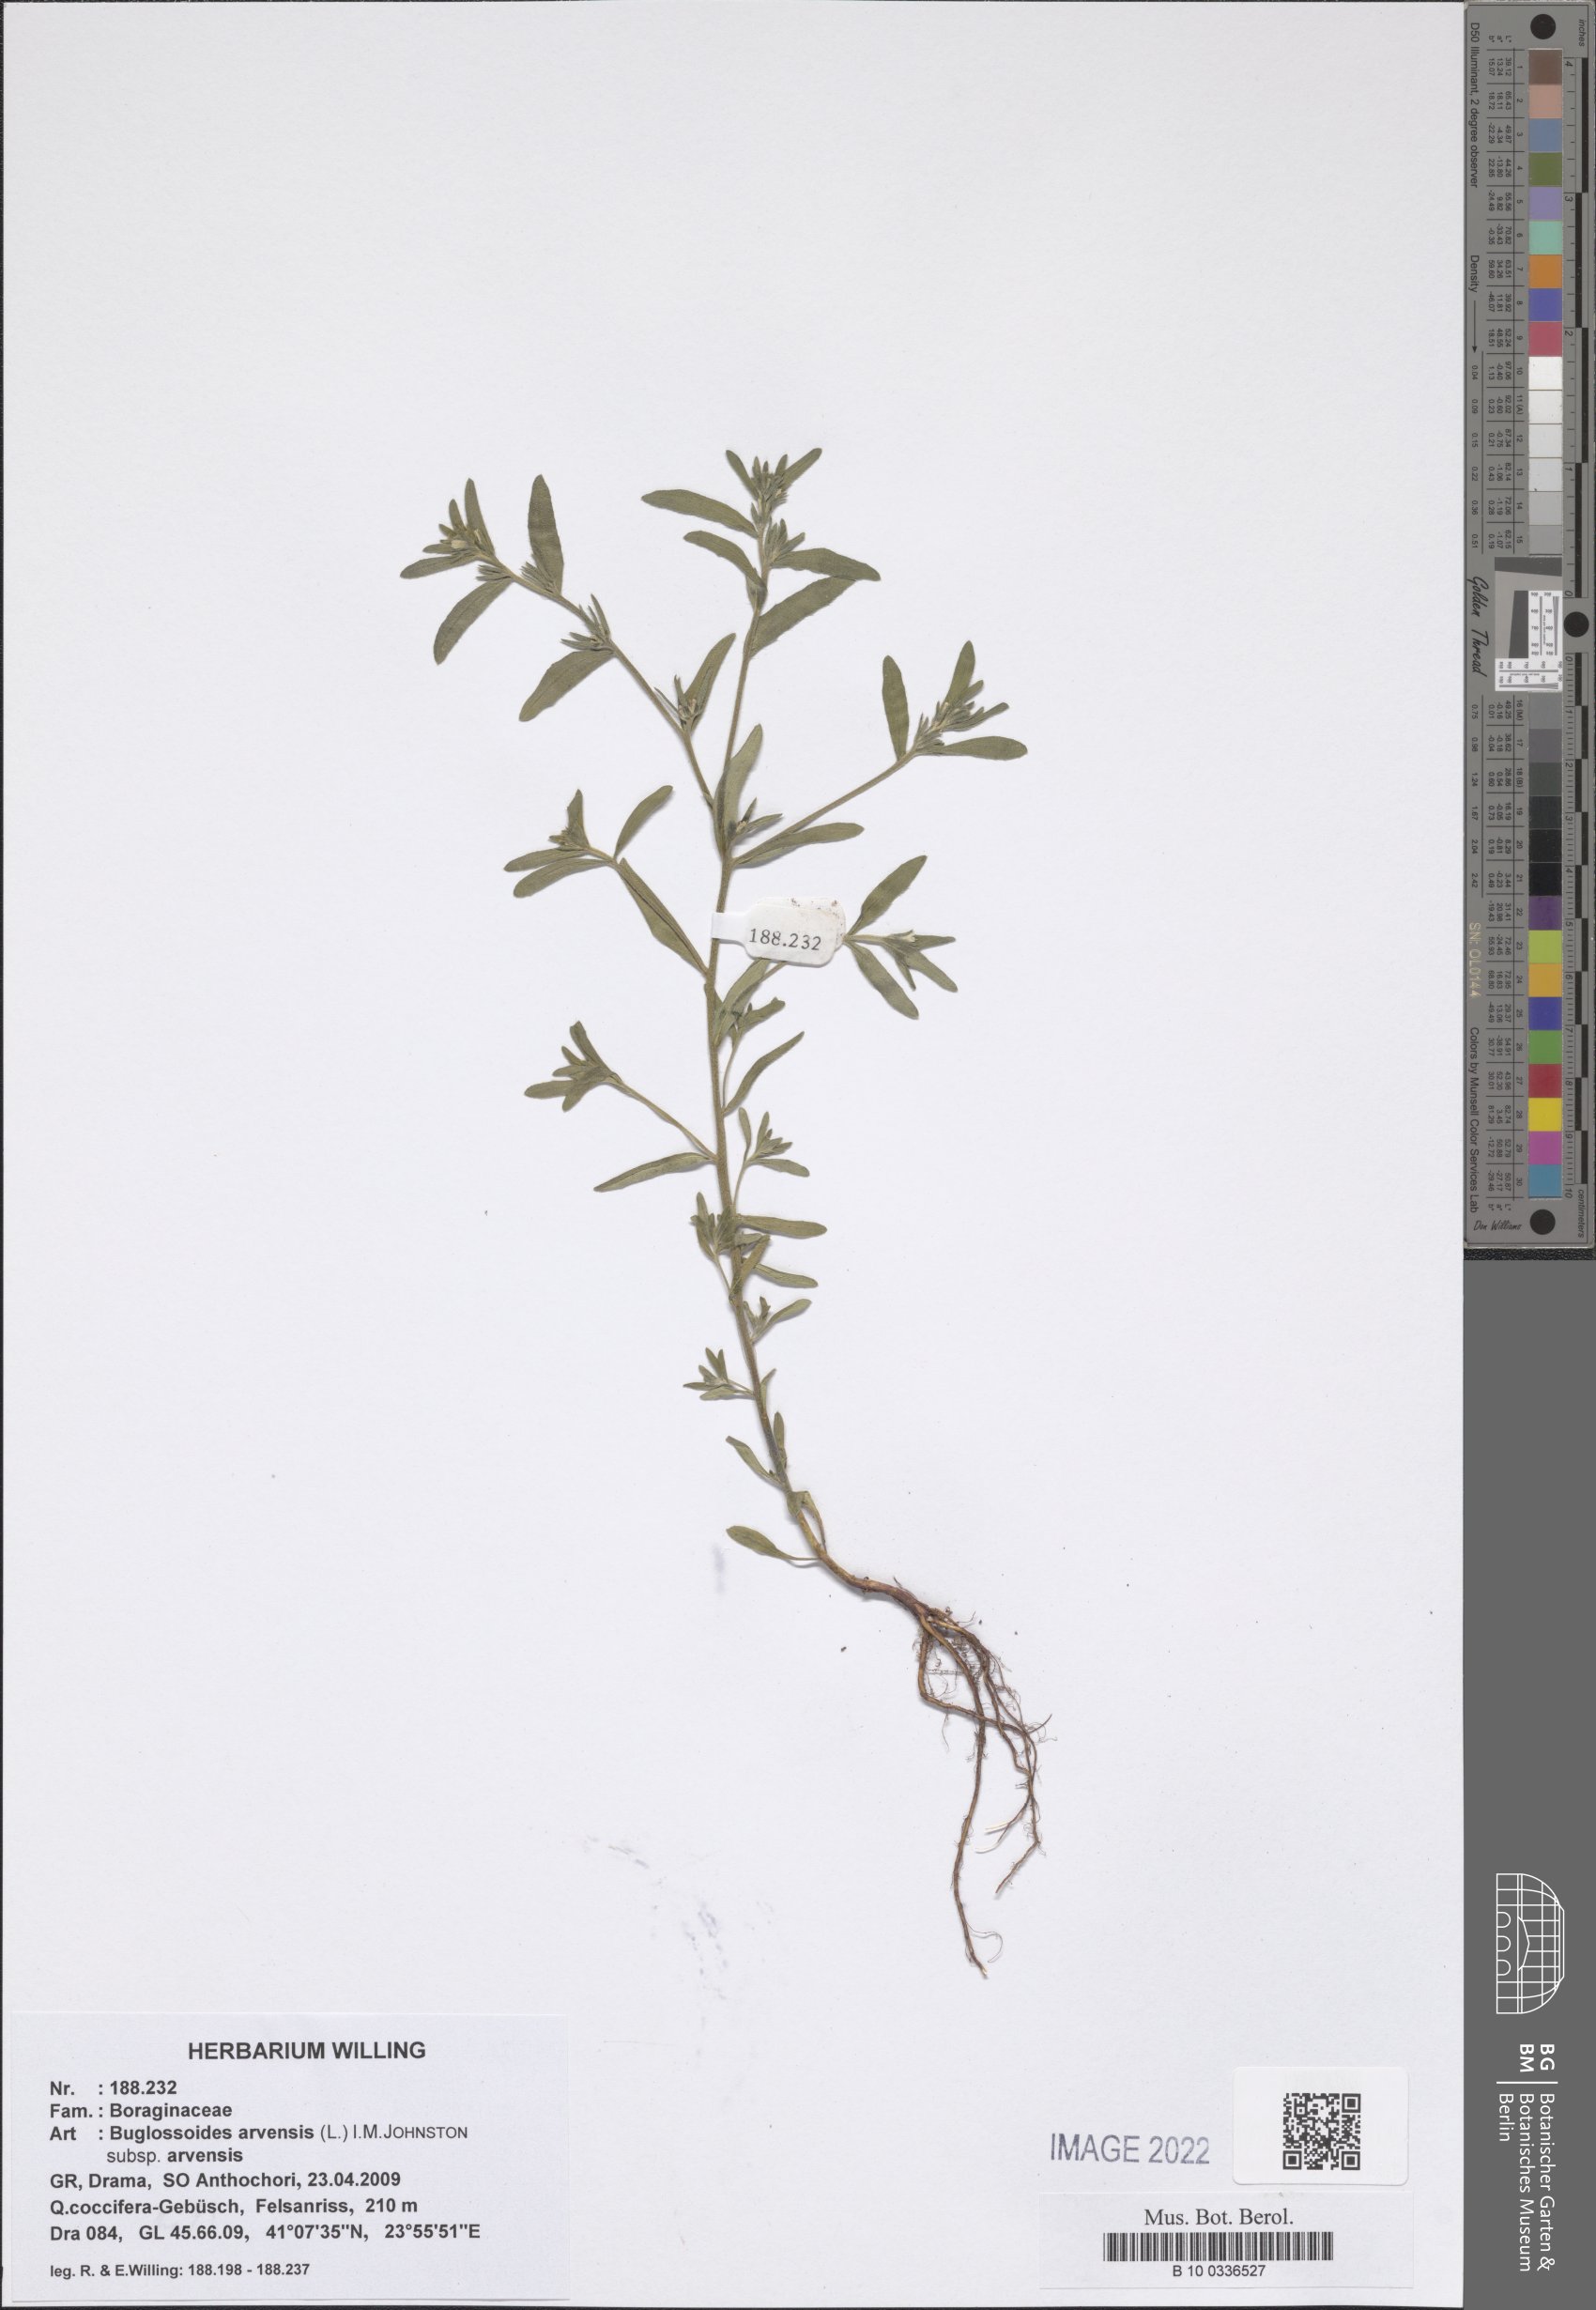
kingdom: Plantae
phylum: Tracheophyta
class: Magnoliopsida
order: Boraginales
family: Boraginaceae
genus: Buglossoides
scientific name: Buglossoides arvensis
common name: Corn gromwell
